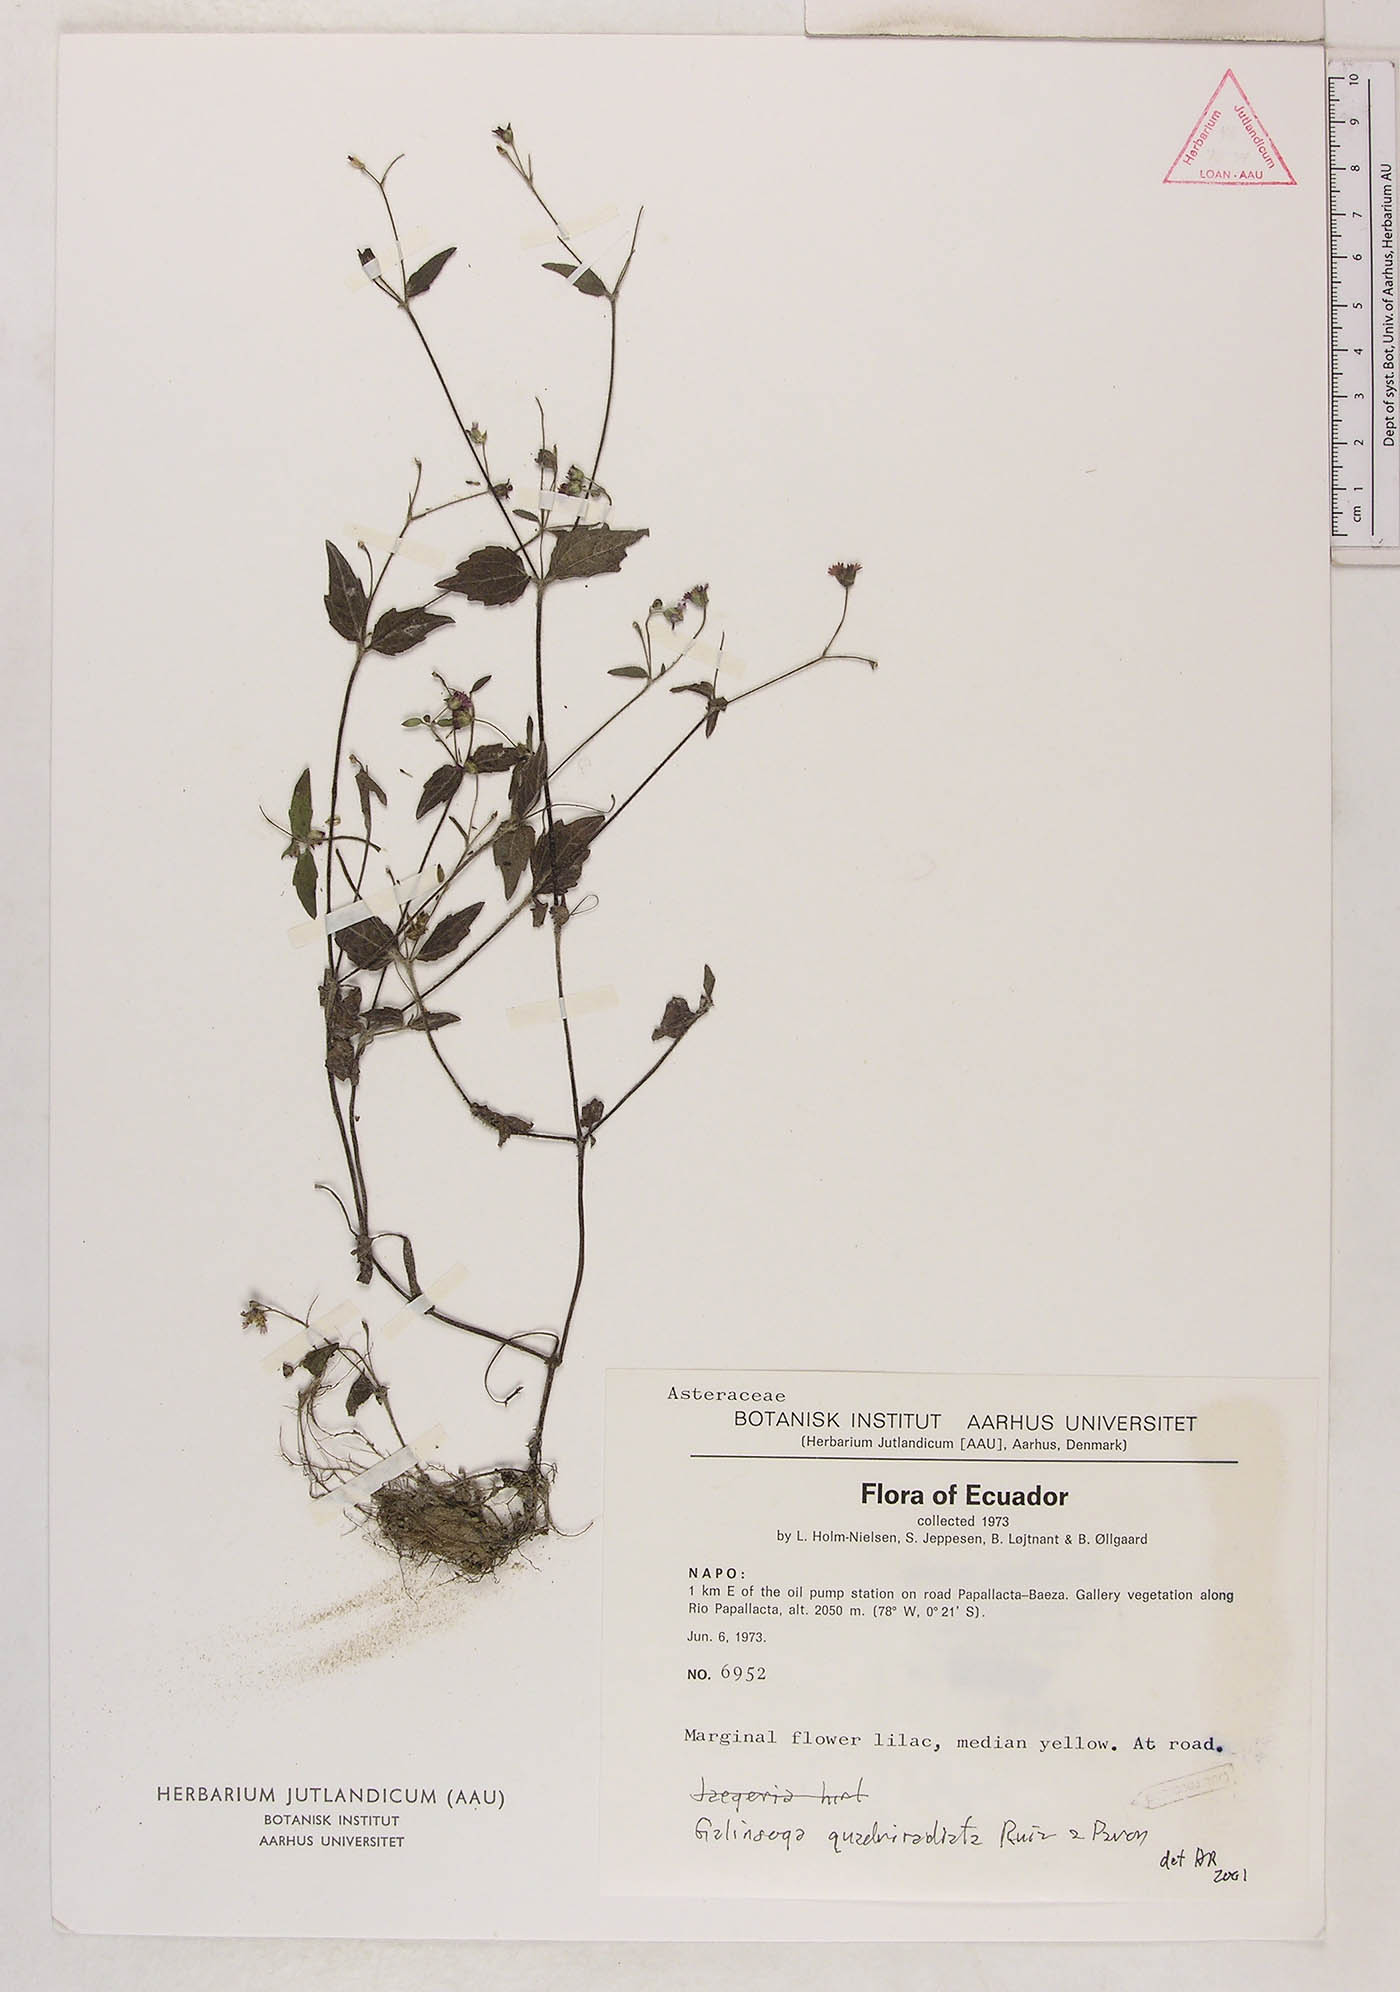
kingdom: Plantae
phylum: Tracheophyta
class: Magnoliopsida
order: Asterales
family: Asteraceae
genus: Galinsoga
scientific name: Galinsoga quadriradiata
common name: Shaggy soldier
